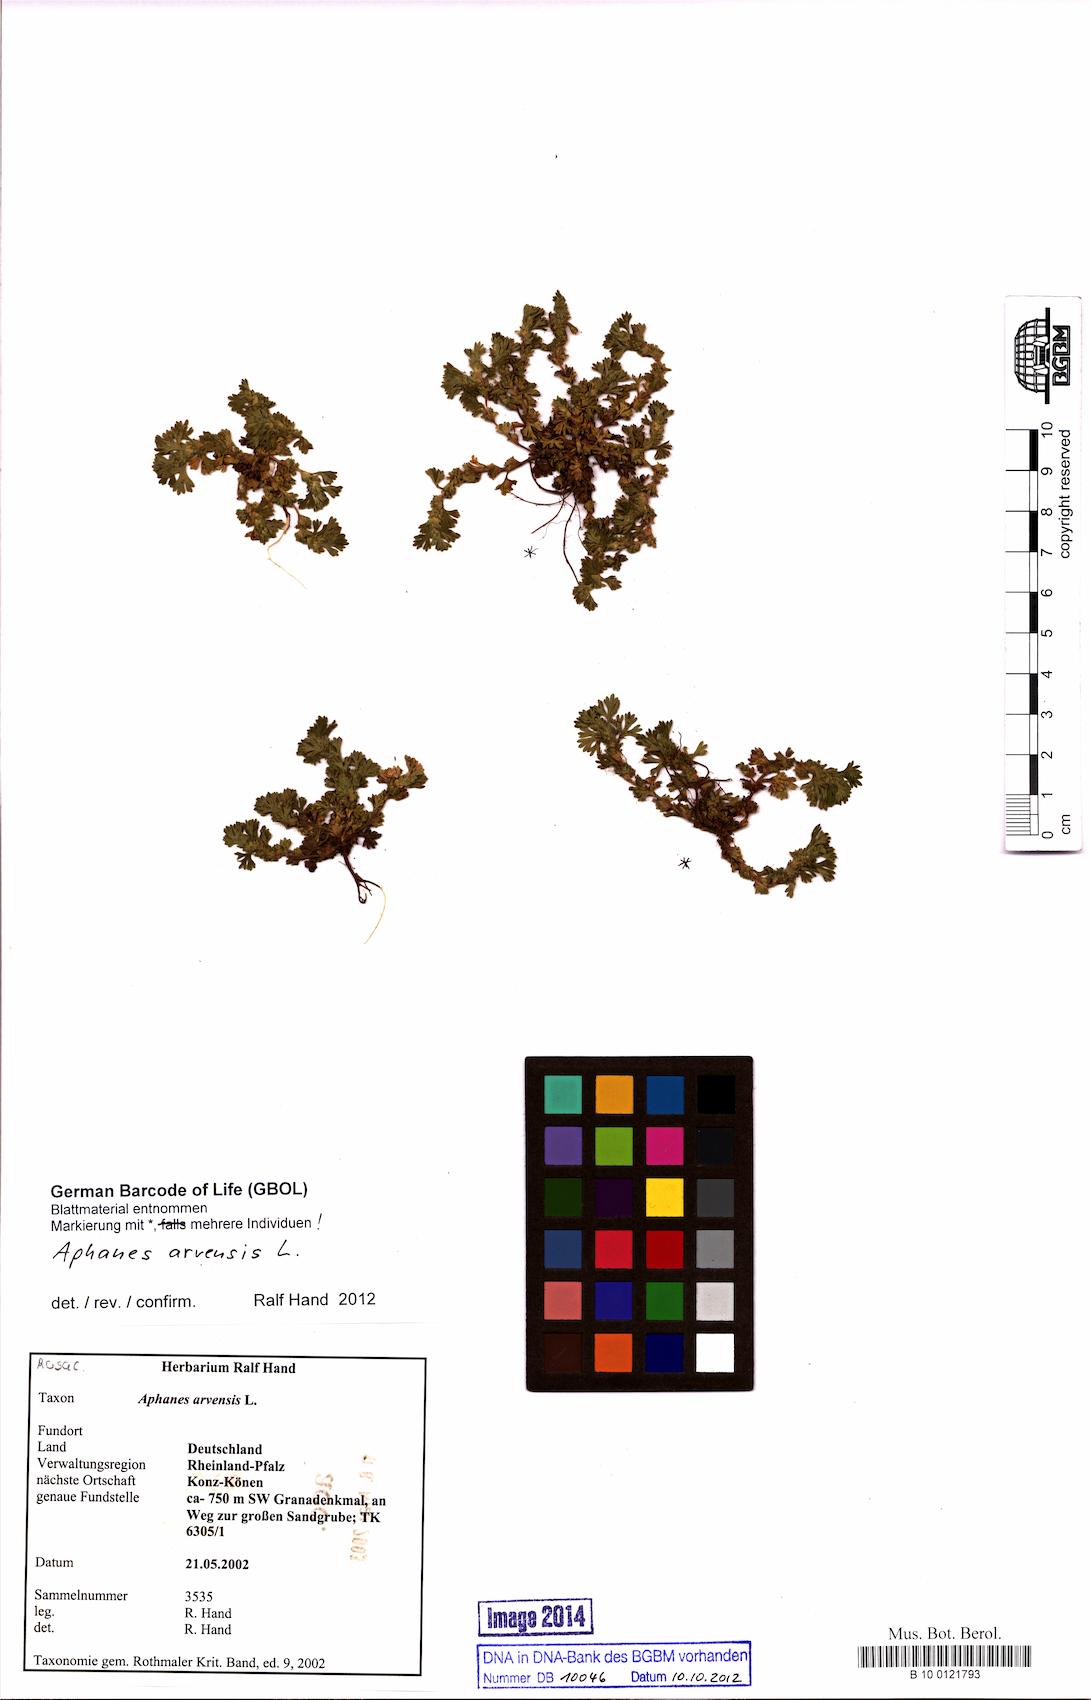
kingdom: Plantae
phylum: Tracheophyta
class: Magnoliopsida
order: Rosales
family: Rosaceae
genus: Aphanes
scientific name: Aphanes arvensis
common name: Parsley-piert
